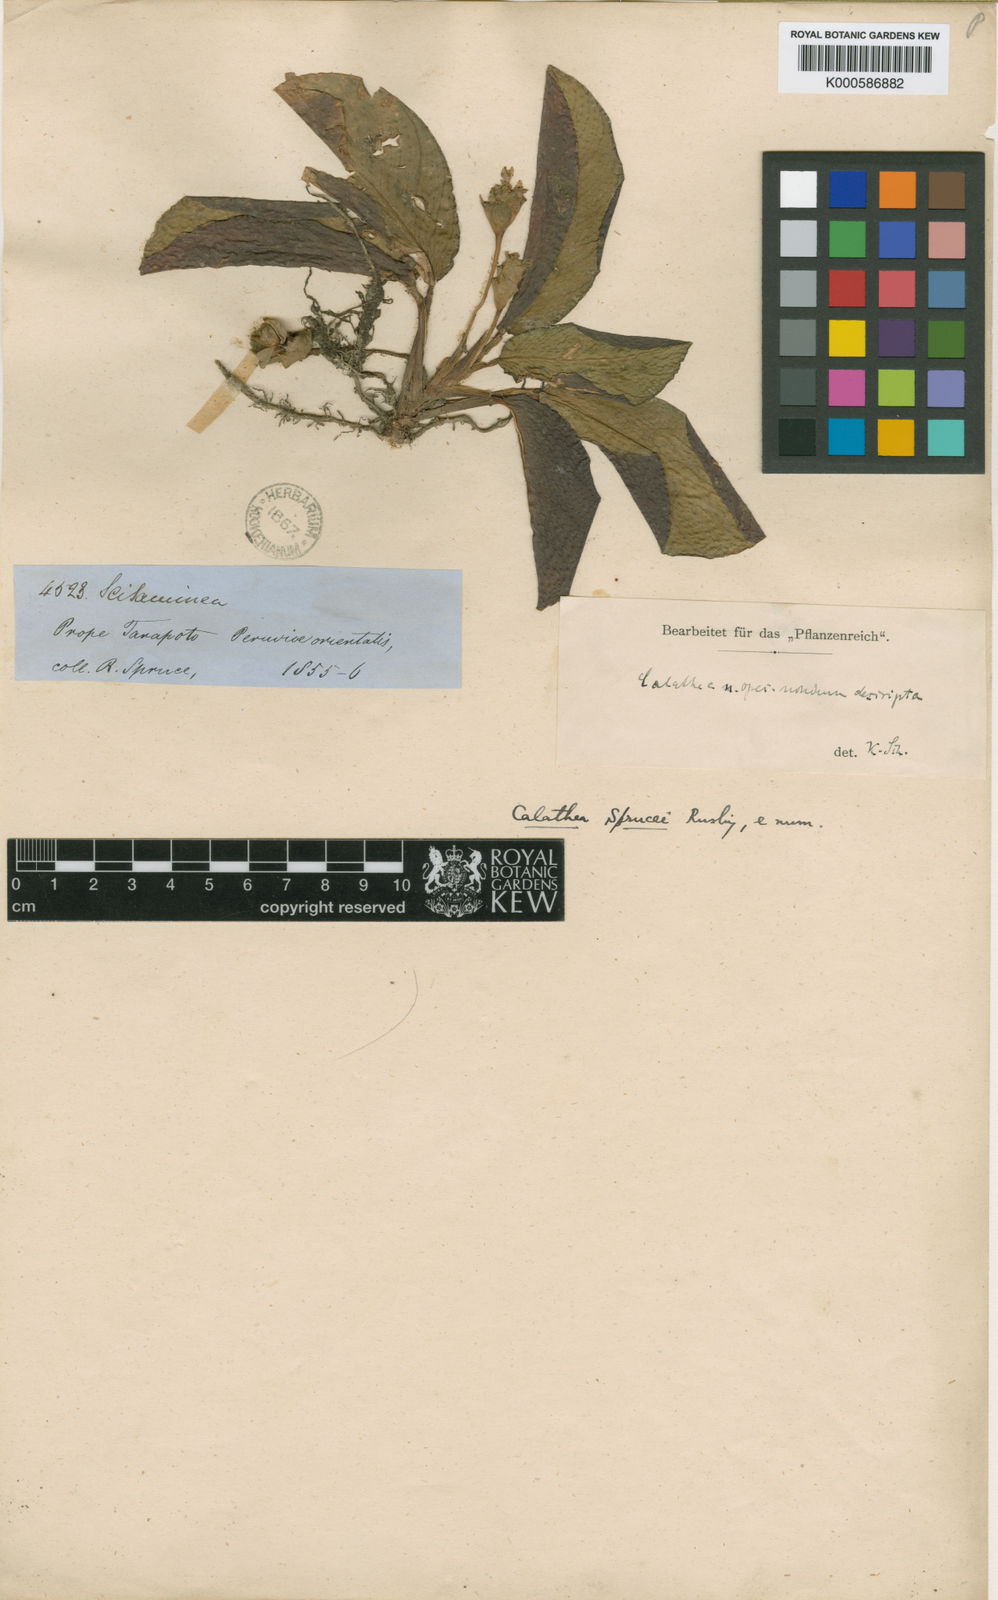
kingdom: Plantae
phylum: Tracheophyta
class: Liliopsida
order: Zingiberales
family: Marantaceae
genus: Goeppertia
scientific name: Goeppertia micans
